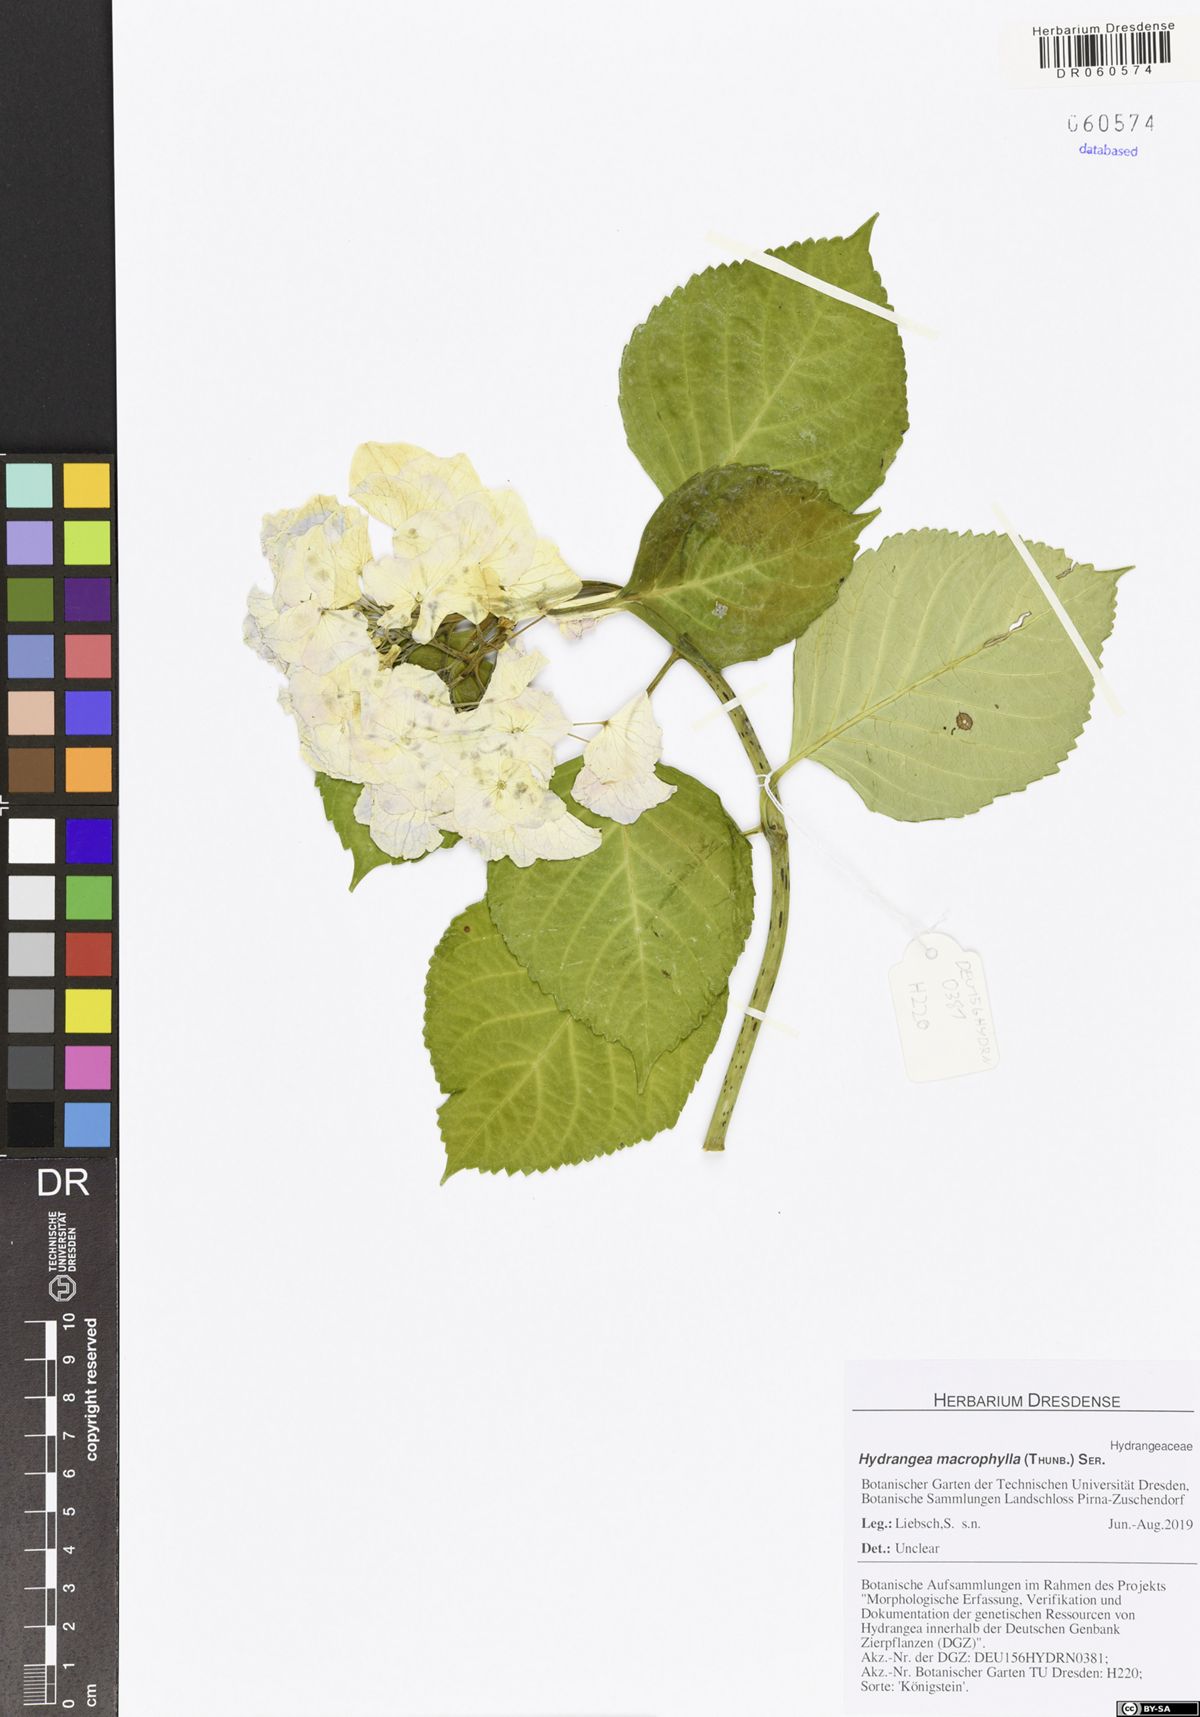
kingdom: Plantae
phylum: Tracheophyta
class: Magnoliopsida
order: Cornales
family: Hydrangeaceae
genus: Hydrangea
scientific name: Hydrangea macrophylla
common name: Hydrangea
